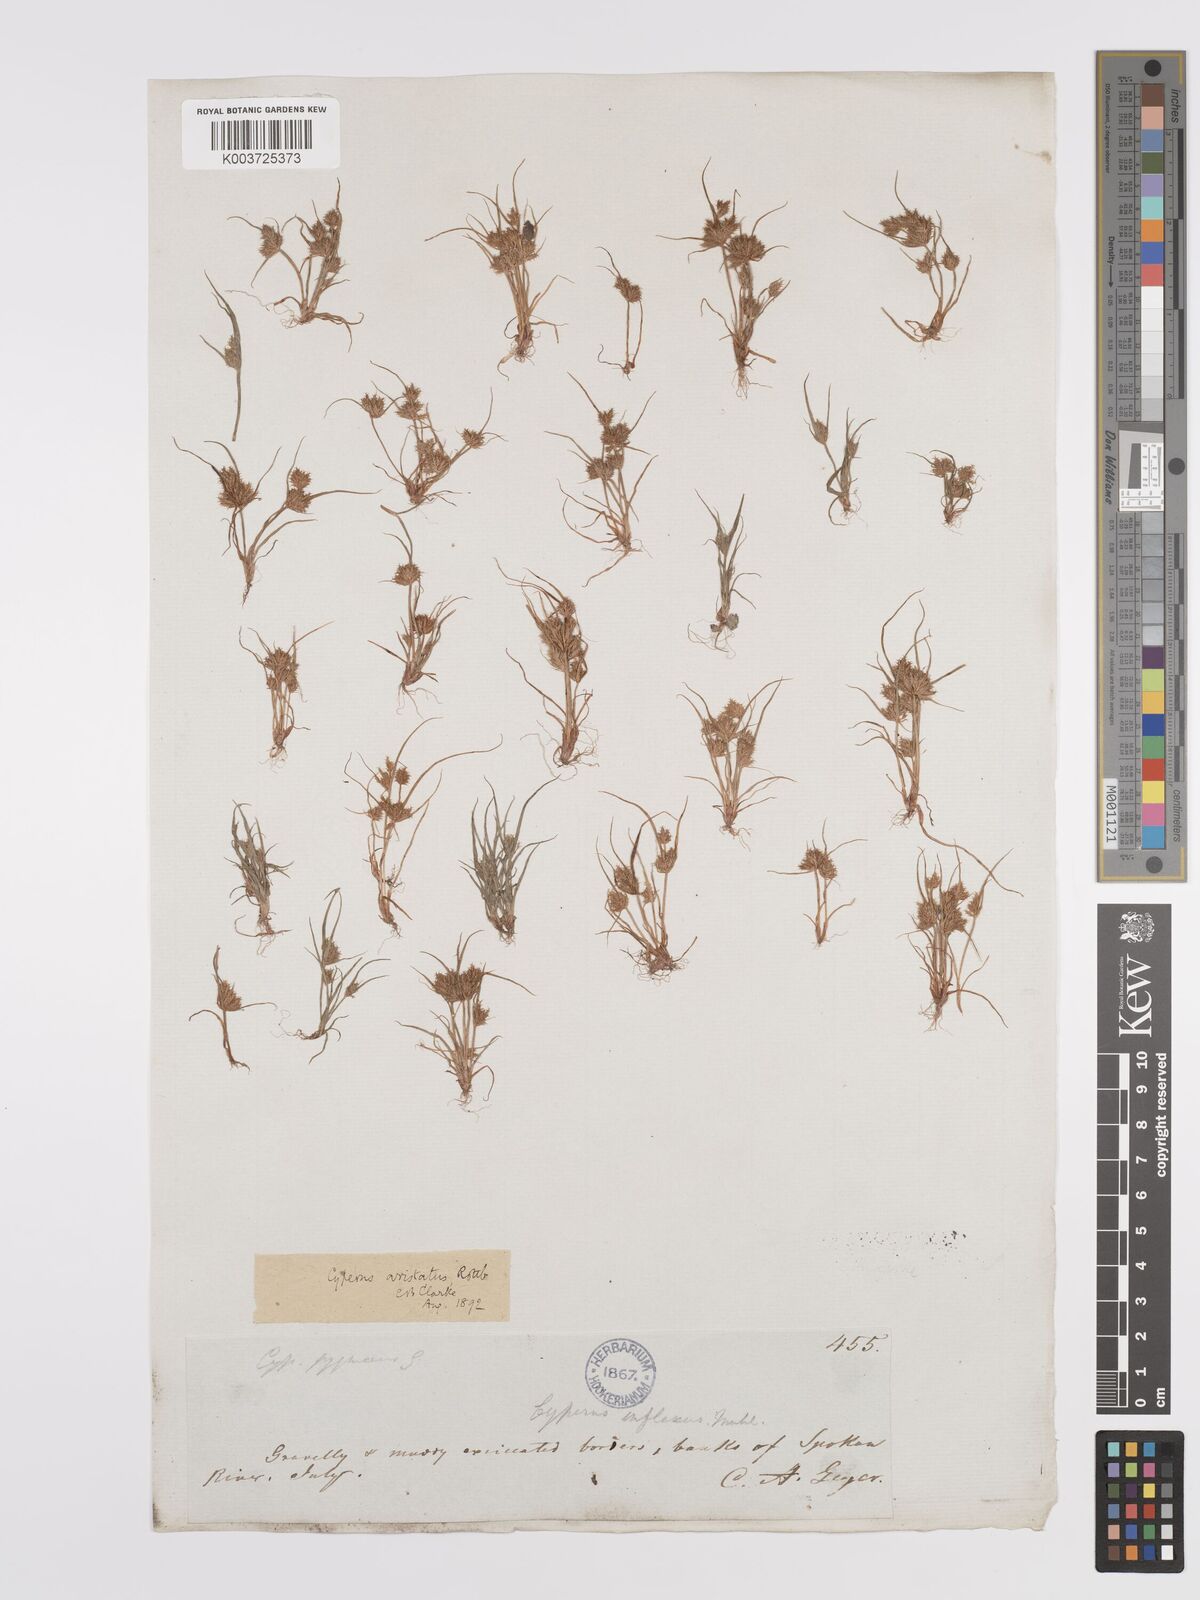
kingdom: Plantae
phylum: Tracheophyta
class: Liliopsida
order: Poales
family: Cyperaceae
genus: Cyperus
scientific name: Cyperus squarrosus
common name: Awned cyperus
